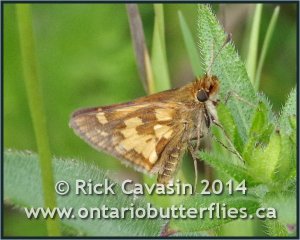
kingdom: Animalia
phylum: Arthropoda
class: Insecta
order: Lepidoptera
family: Hesperiidae
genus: Polites
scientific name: Polites coras
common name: Peck's Skipper
